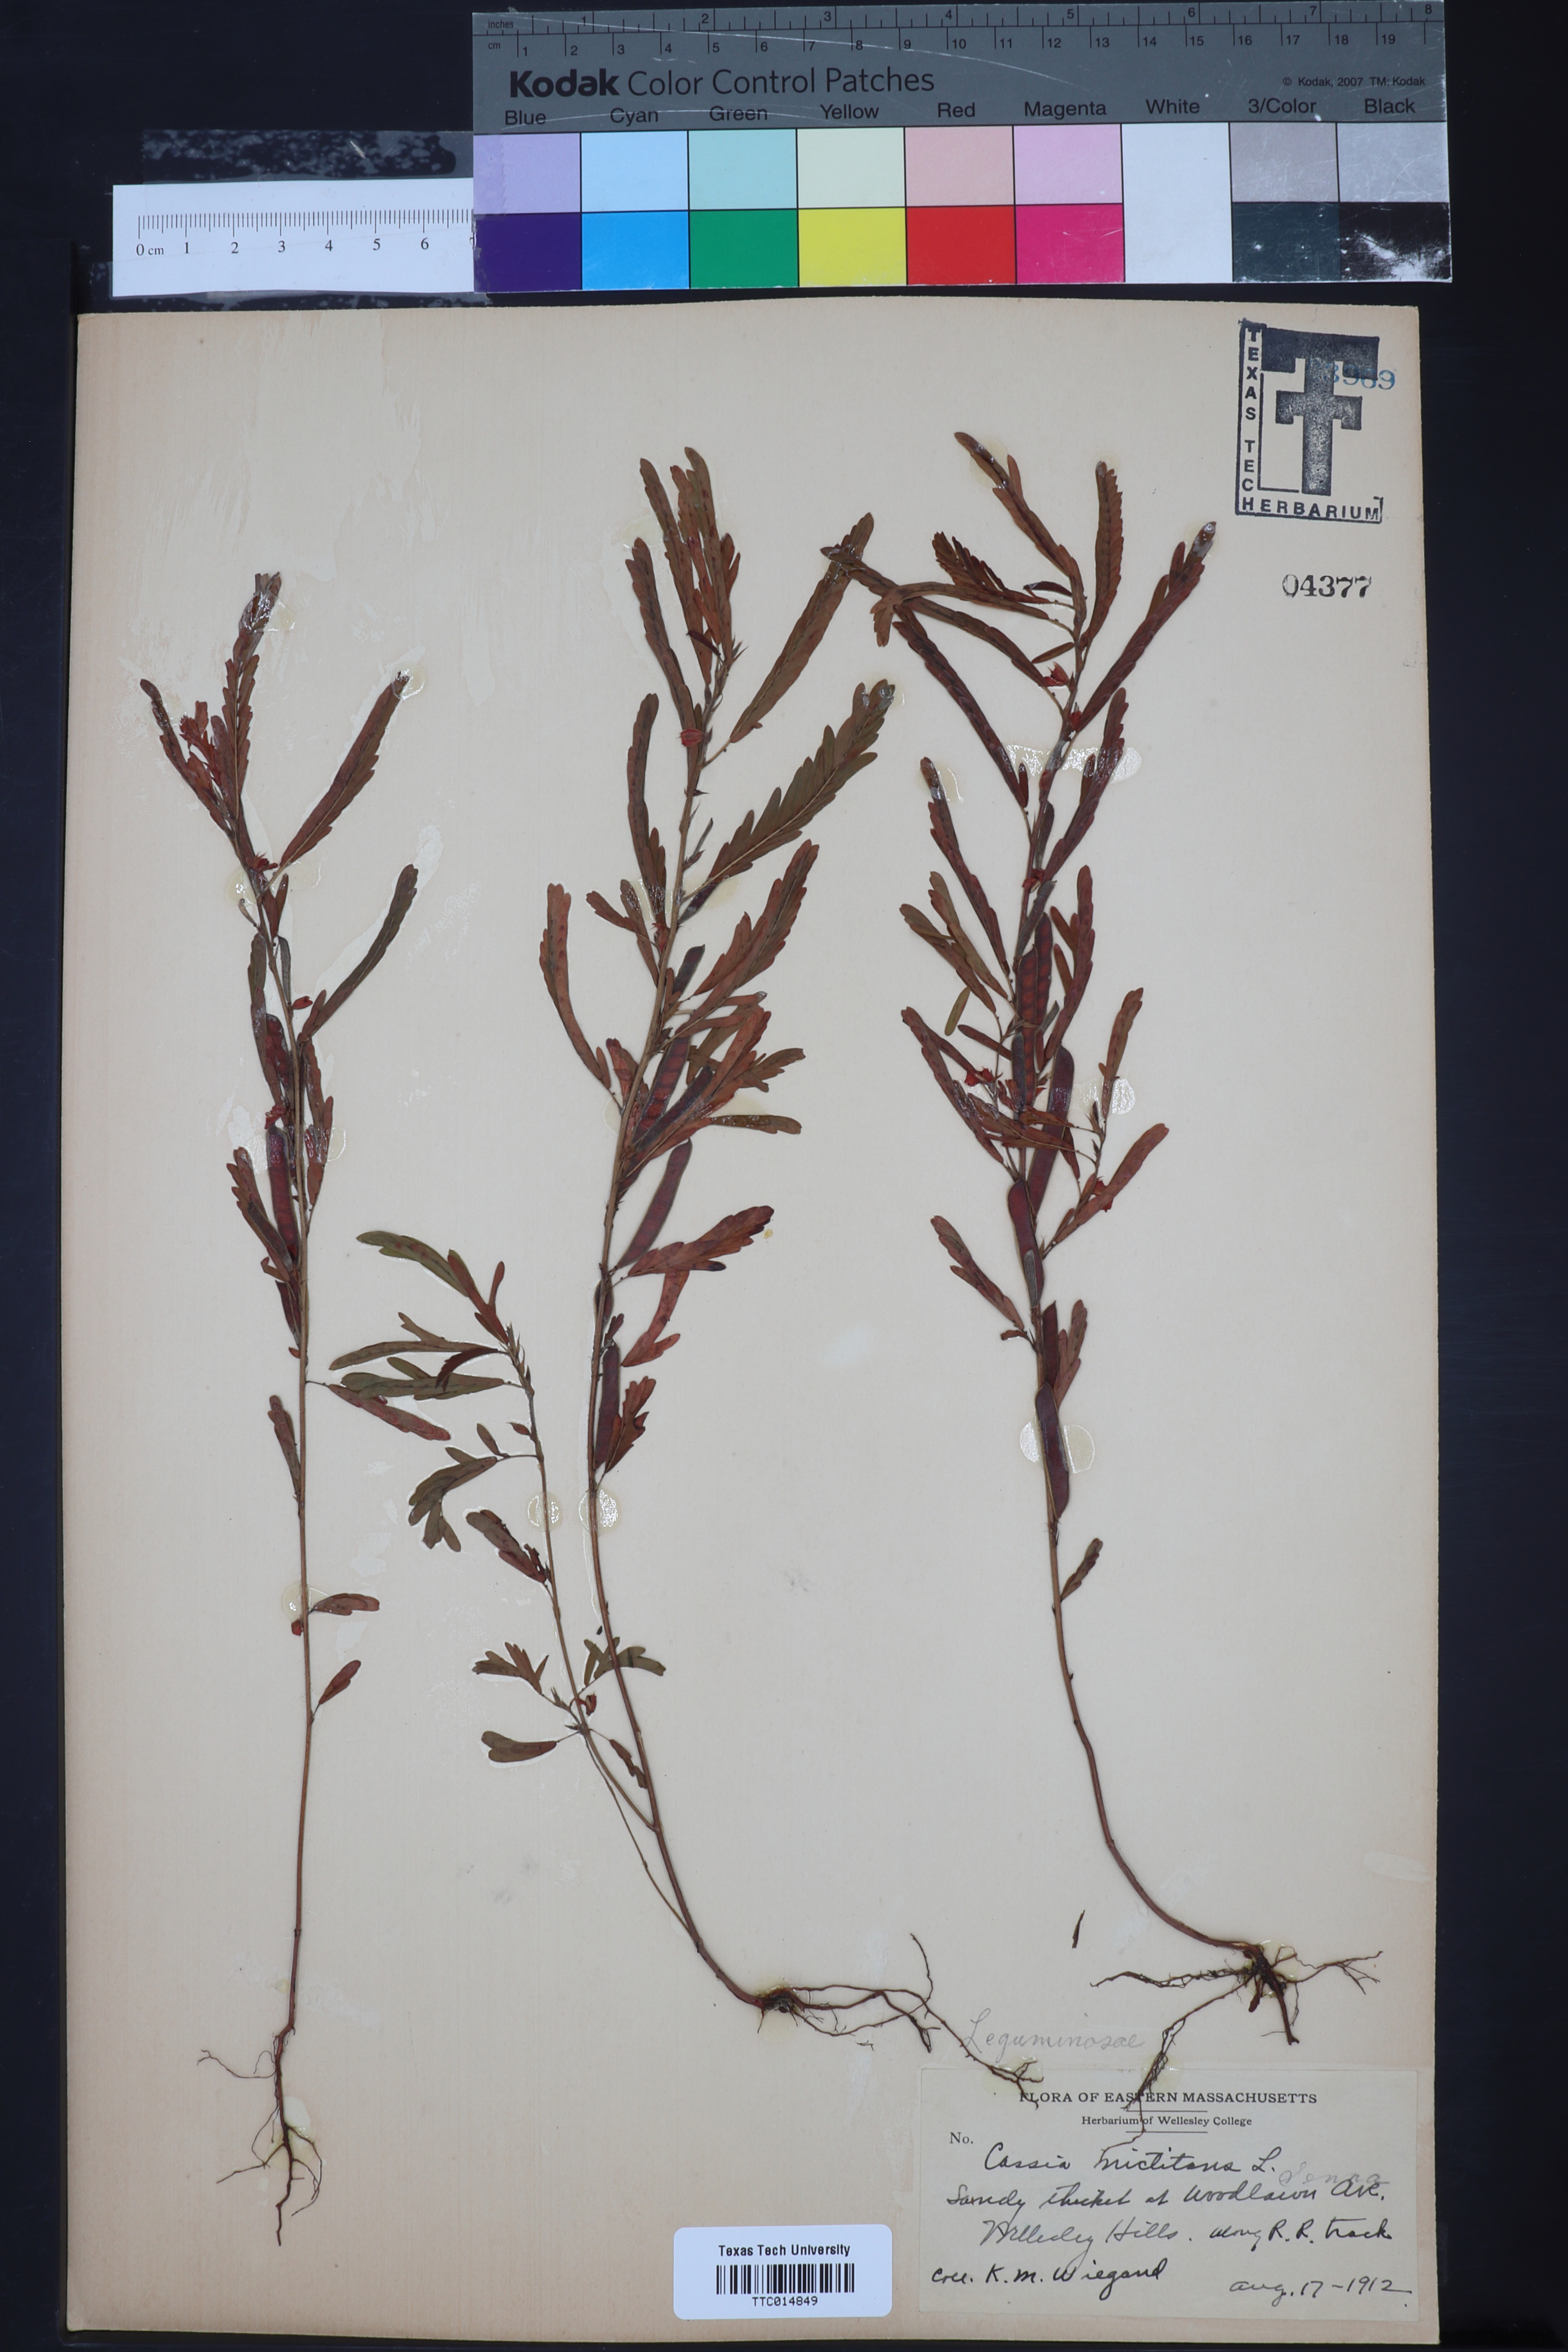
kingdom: Plantae
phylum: Tracheophyta
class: Magnoliopsida
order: Fabales
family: Fabaceae
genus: Chamaecrista
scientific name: Chamaecrista nictitans
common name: Sensitive cassia
